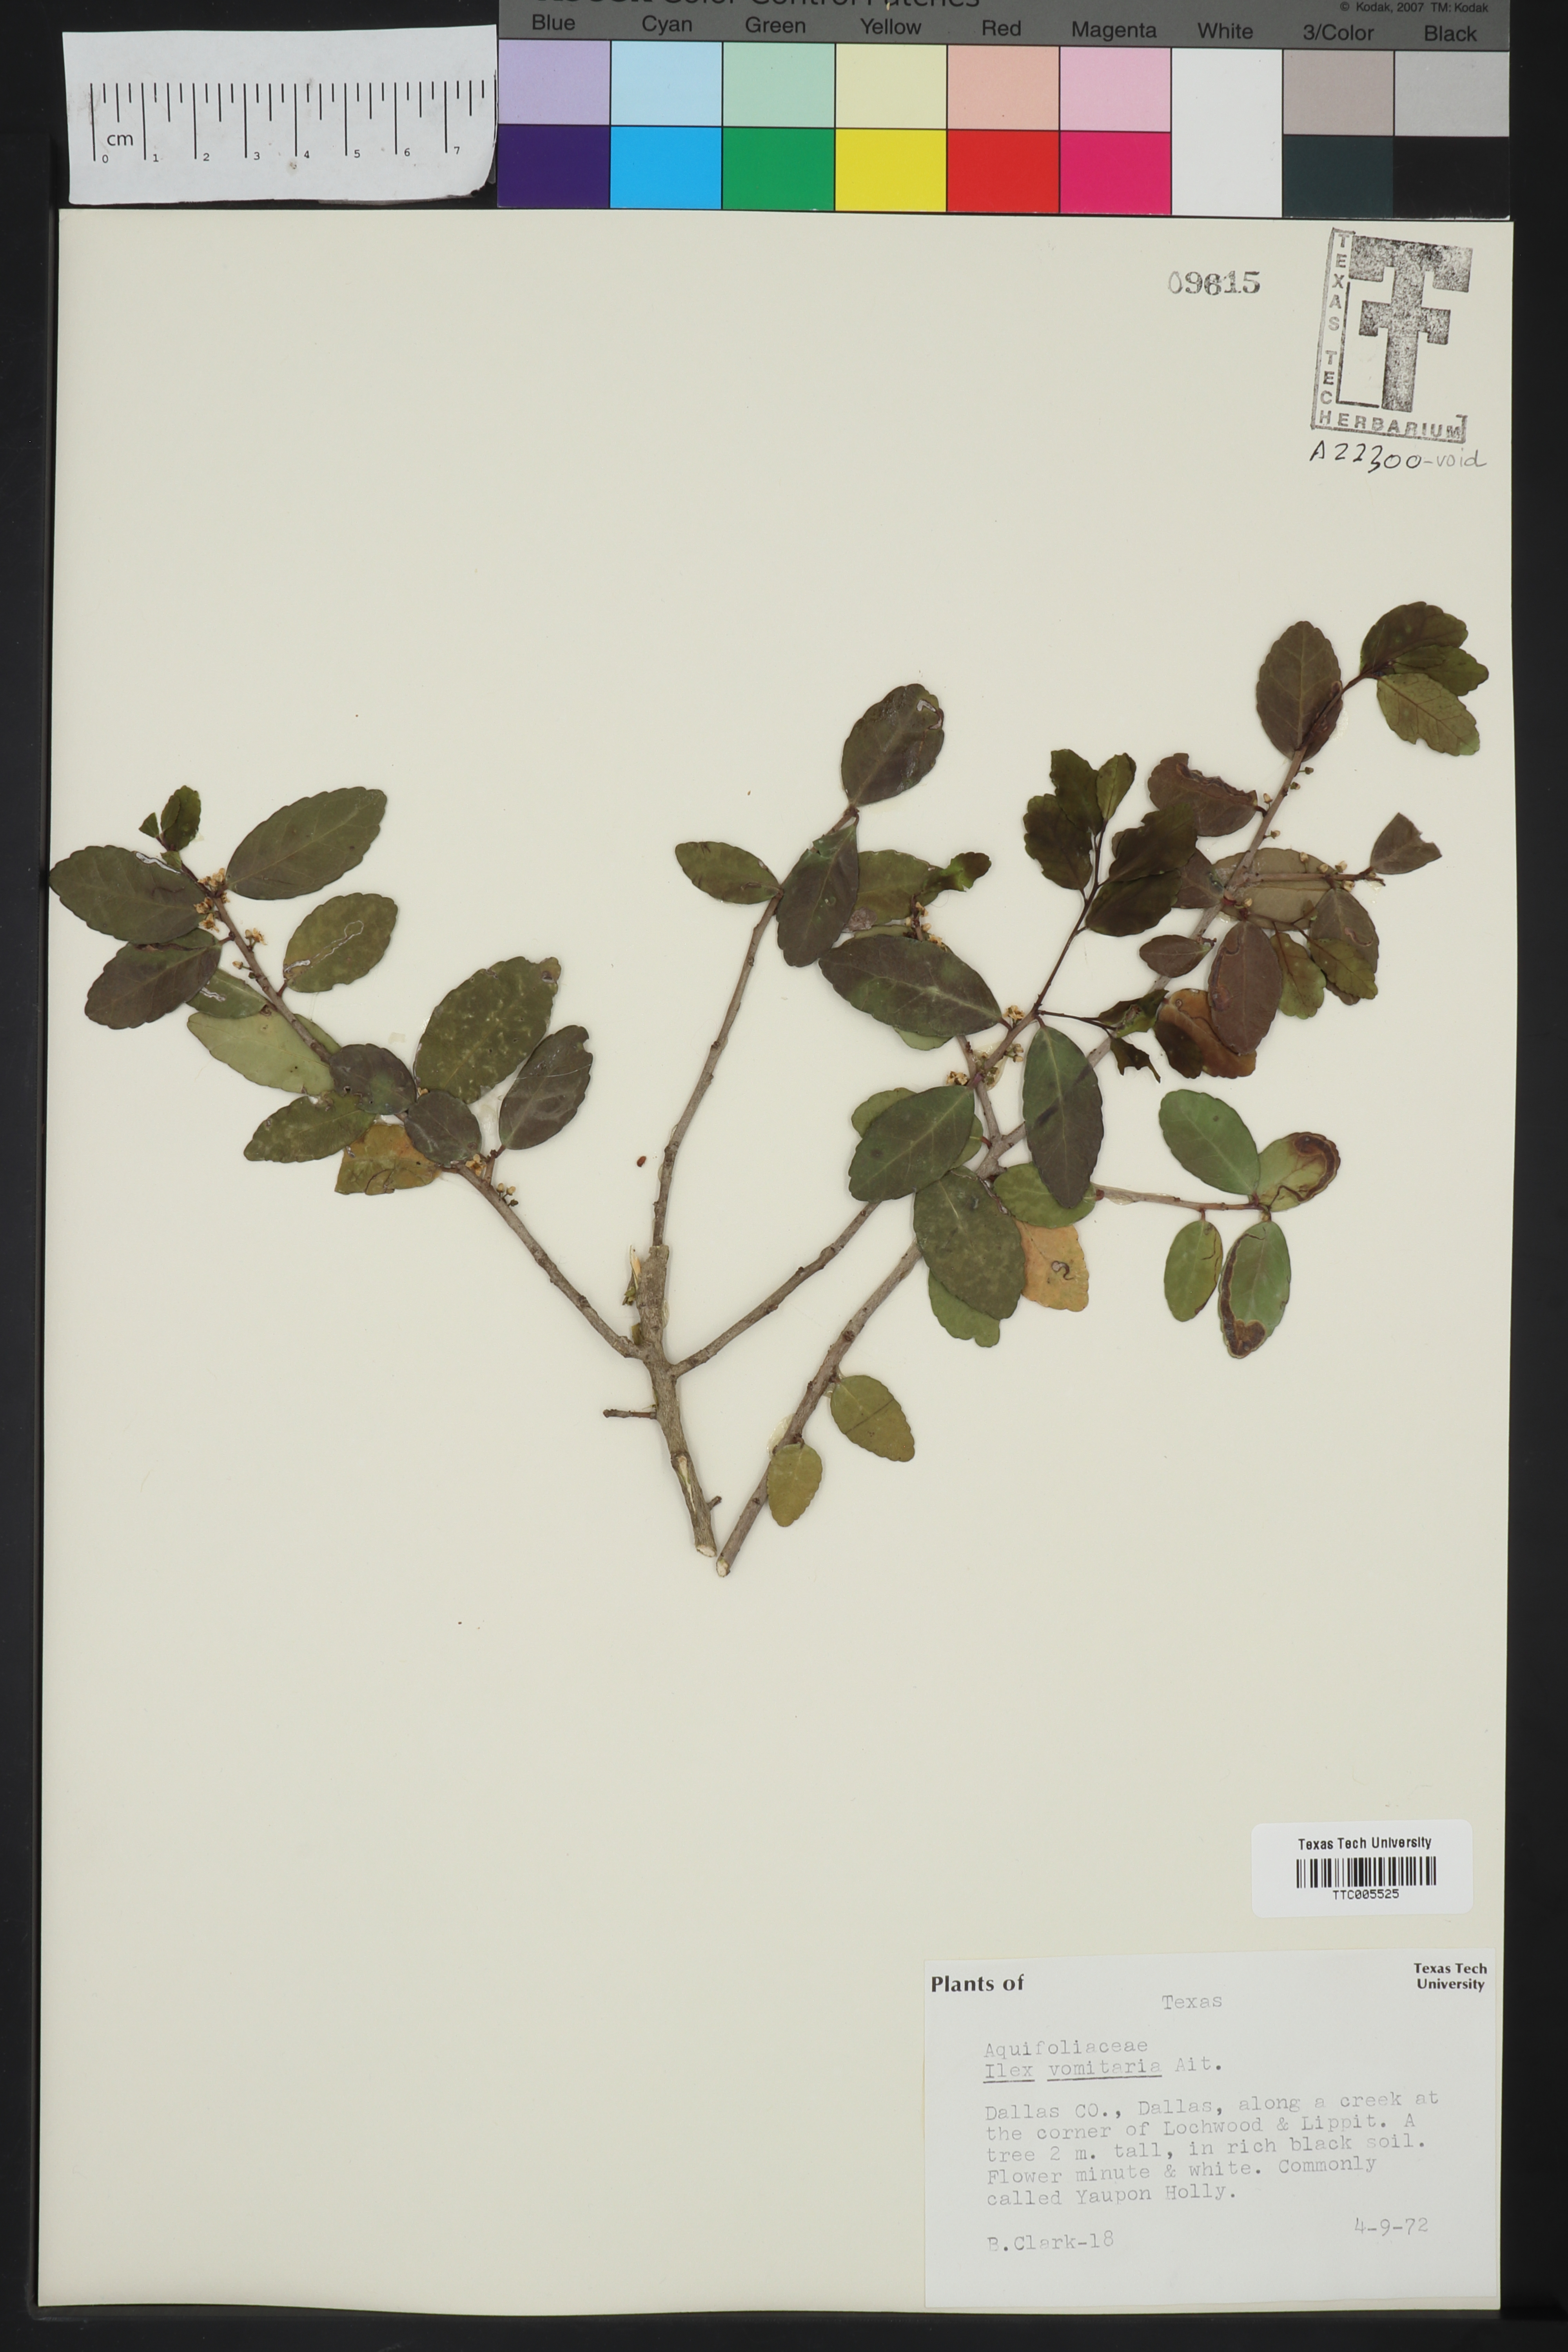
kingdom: Plantae
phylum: Tracheophyta
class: Magnoliopsida
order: Aquifoliales
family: Aquifoliaceae
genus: Ilex
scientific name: Ilex vomitoria
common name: Yaupon holly
